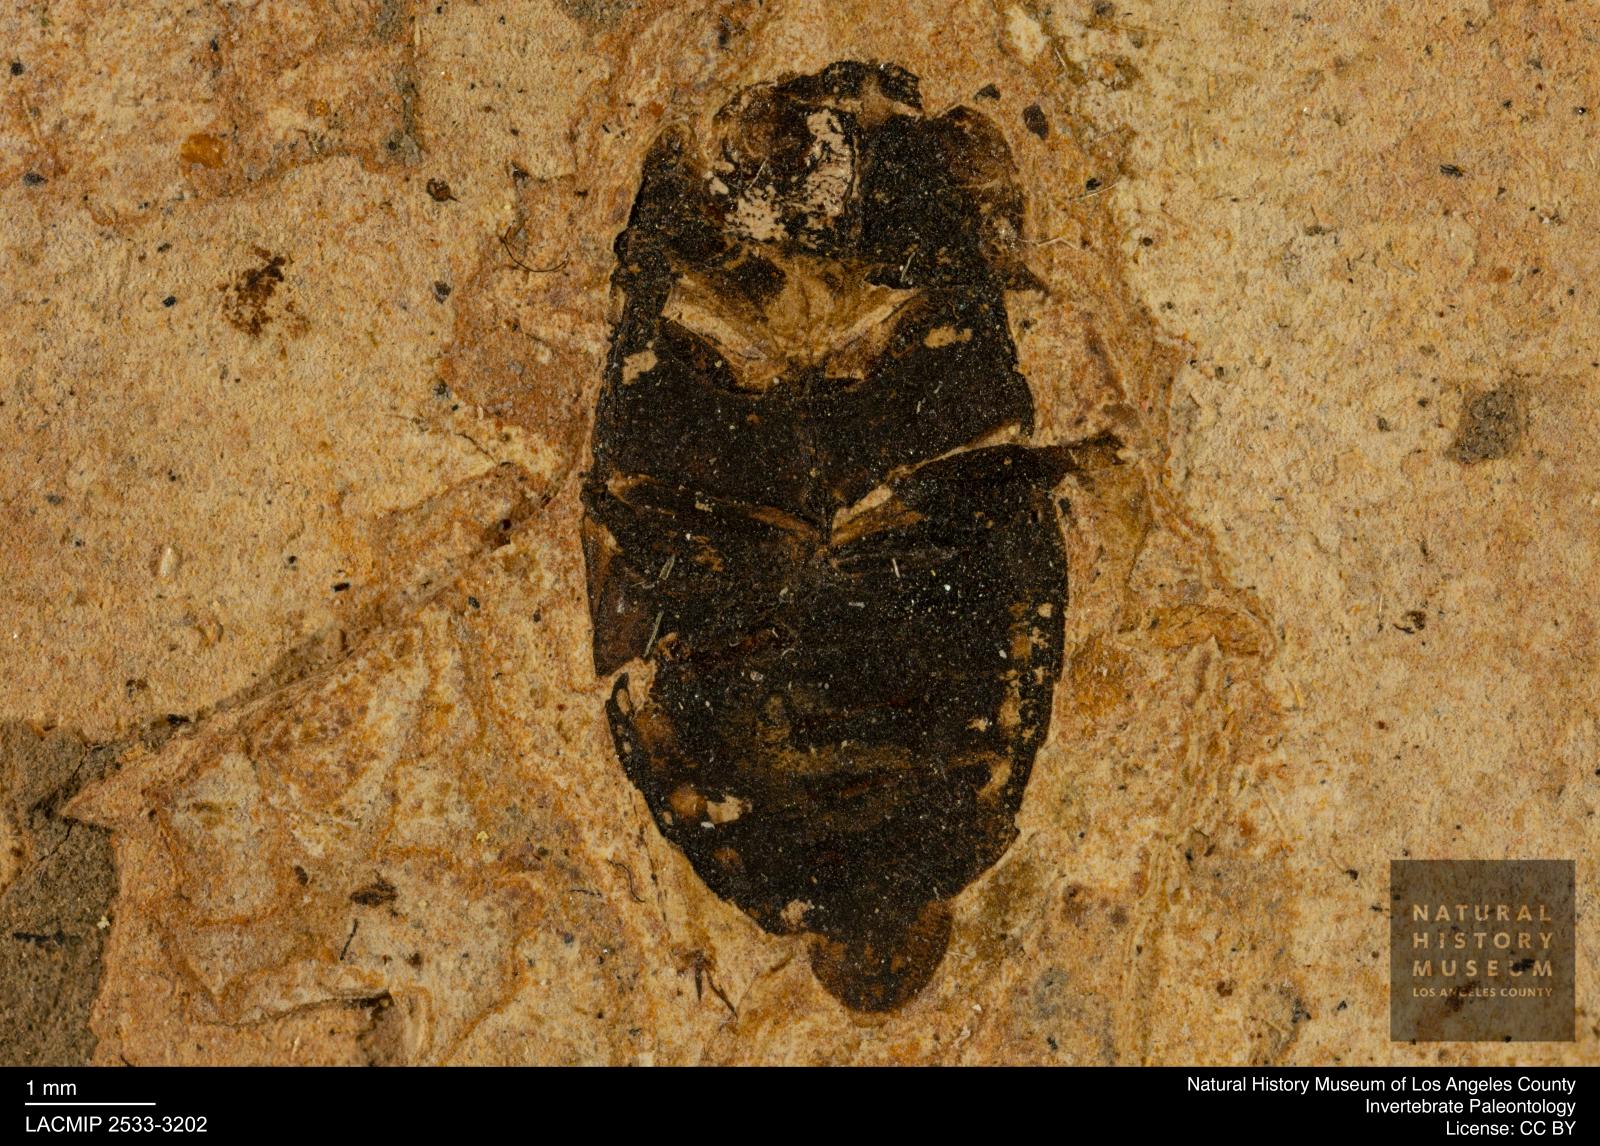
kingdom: Animalia
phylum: Arthropoda
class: Insecta
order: Coleoptera
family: Hydrophilidae
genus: Berosus
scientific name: Berosus morticinus
